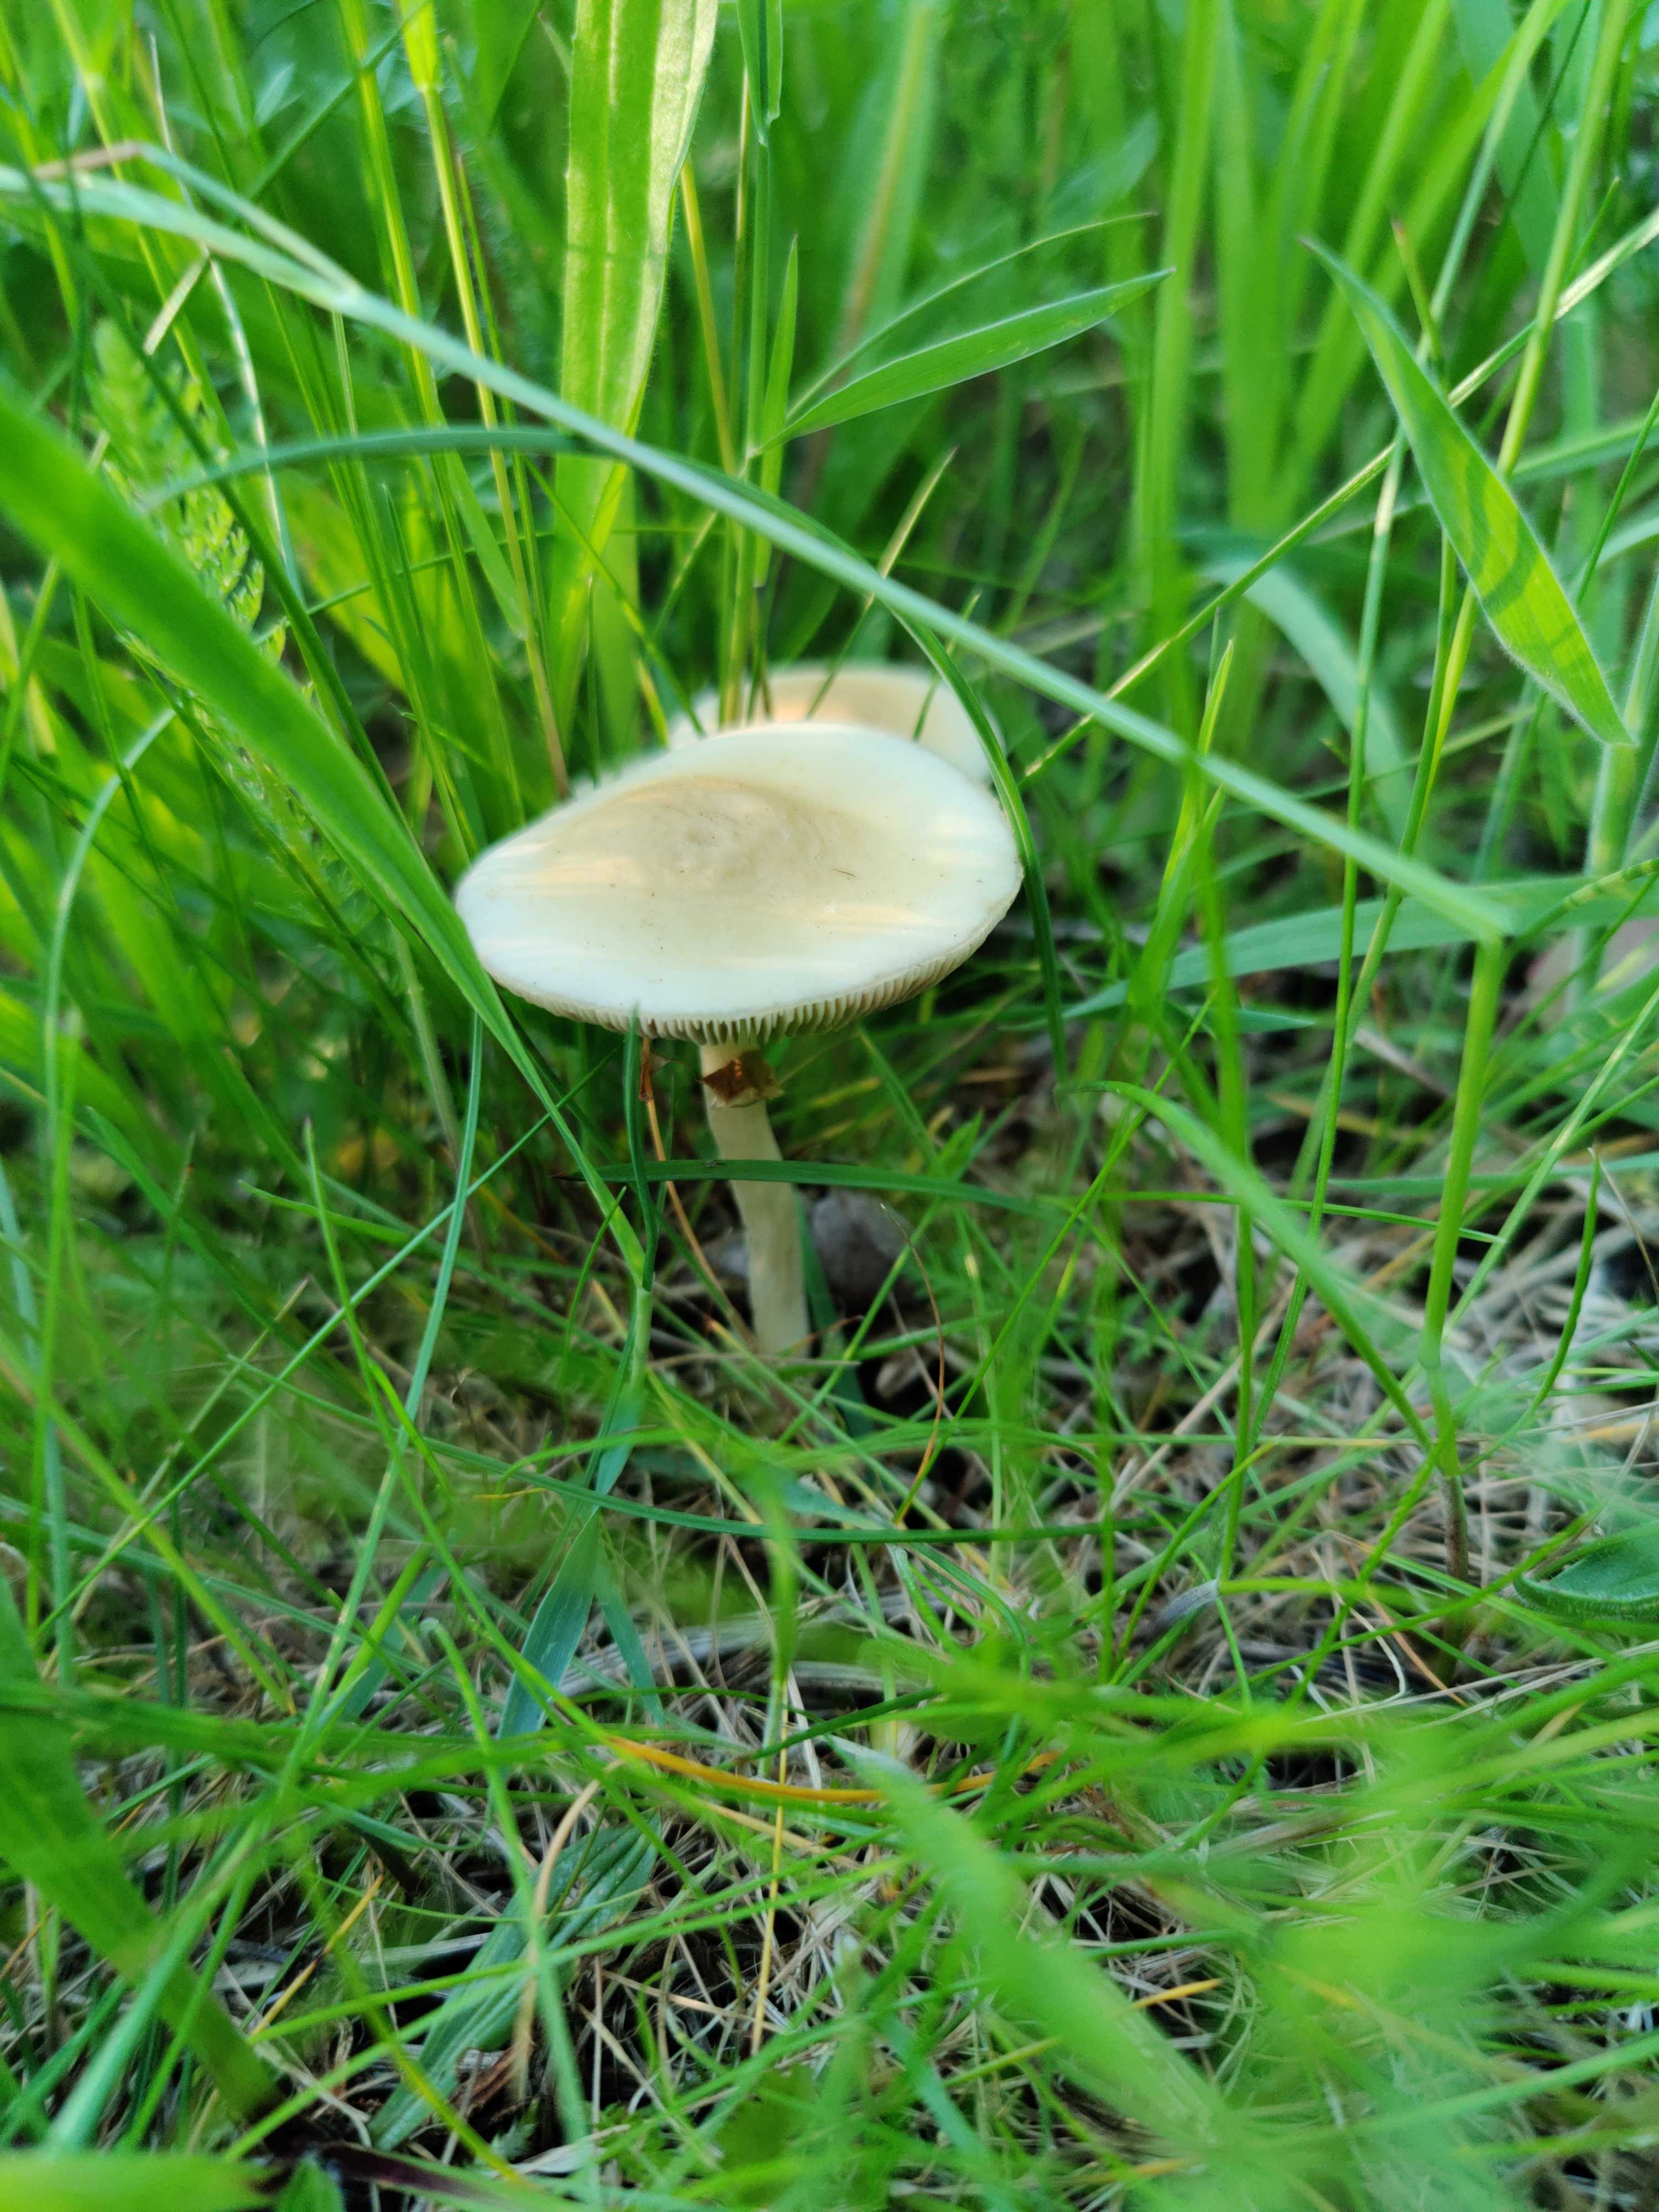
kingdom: Fungi
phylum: Basidiomycota
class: Agaricomycetes
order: Agaricales
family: Strophariaceae
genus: Agrocybe
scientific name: Agrocybe
